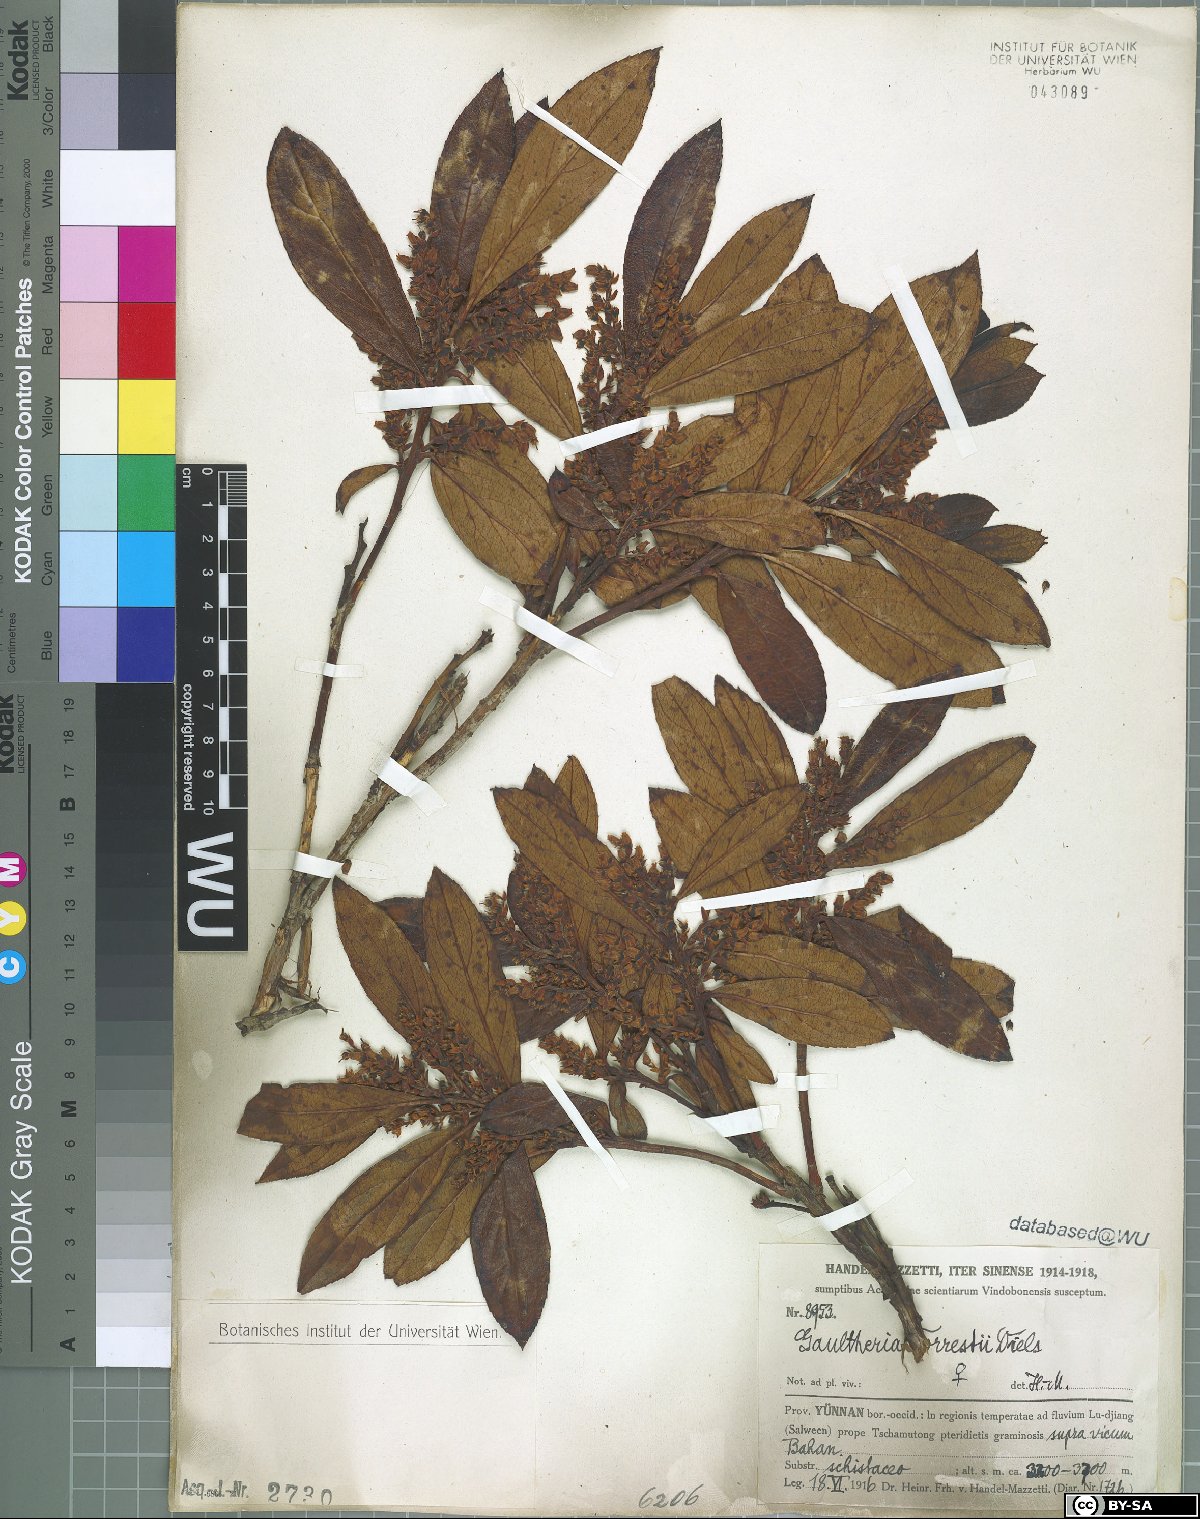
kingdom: Plantae
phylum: Tracheophyta
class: Magnoliopsida
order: Ericales
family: Ericaceae
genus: Gaultheria
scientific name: Gaultheria fragrantissima
